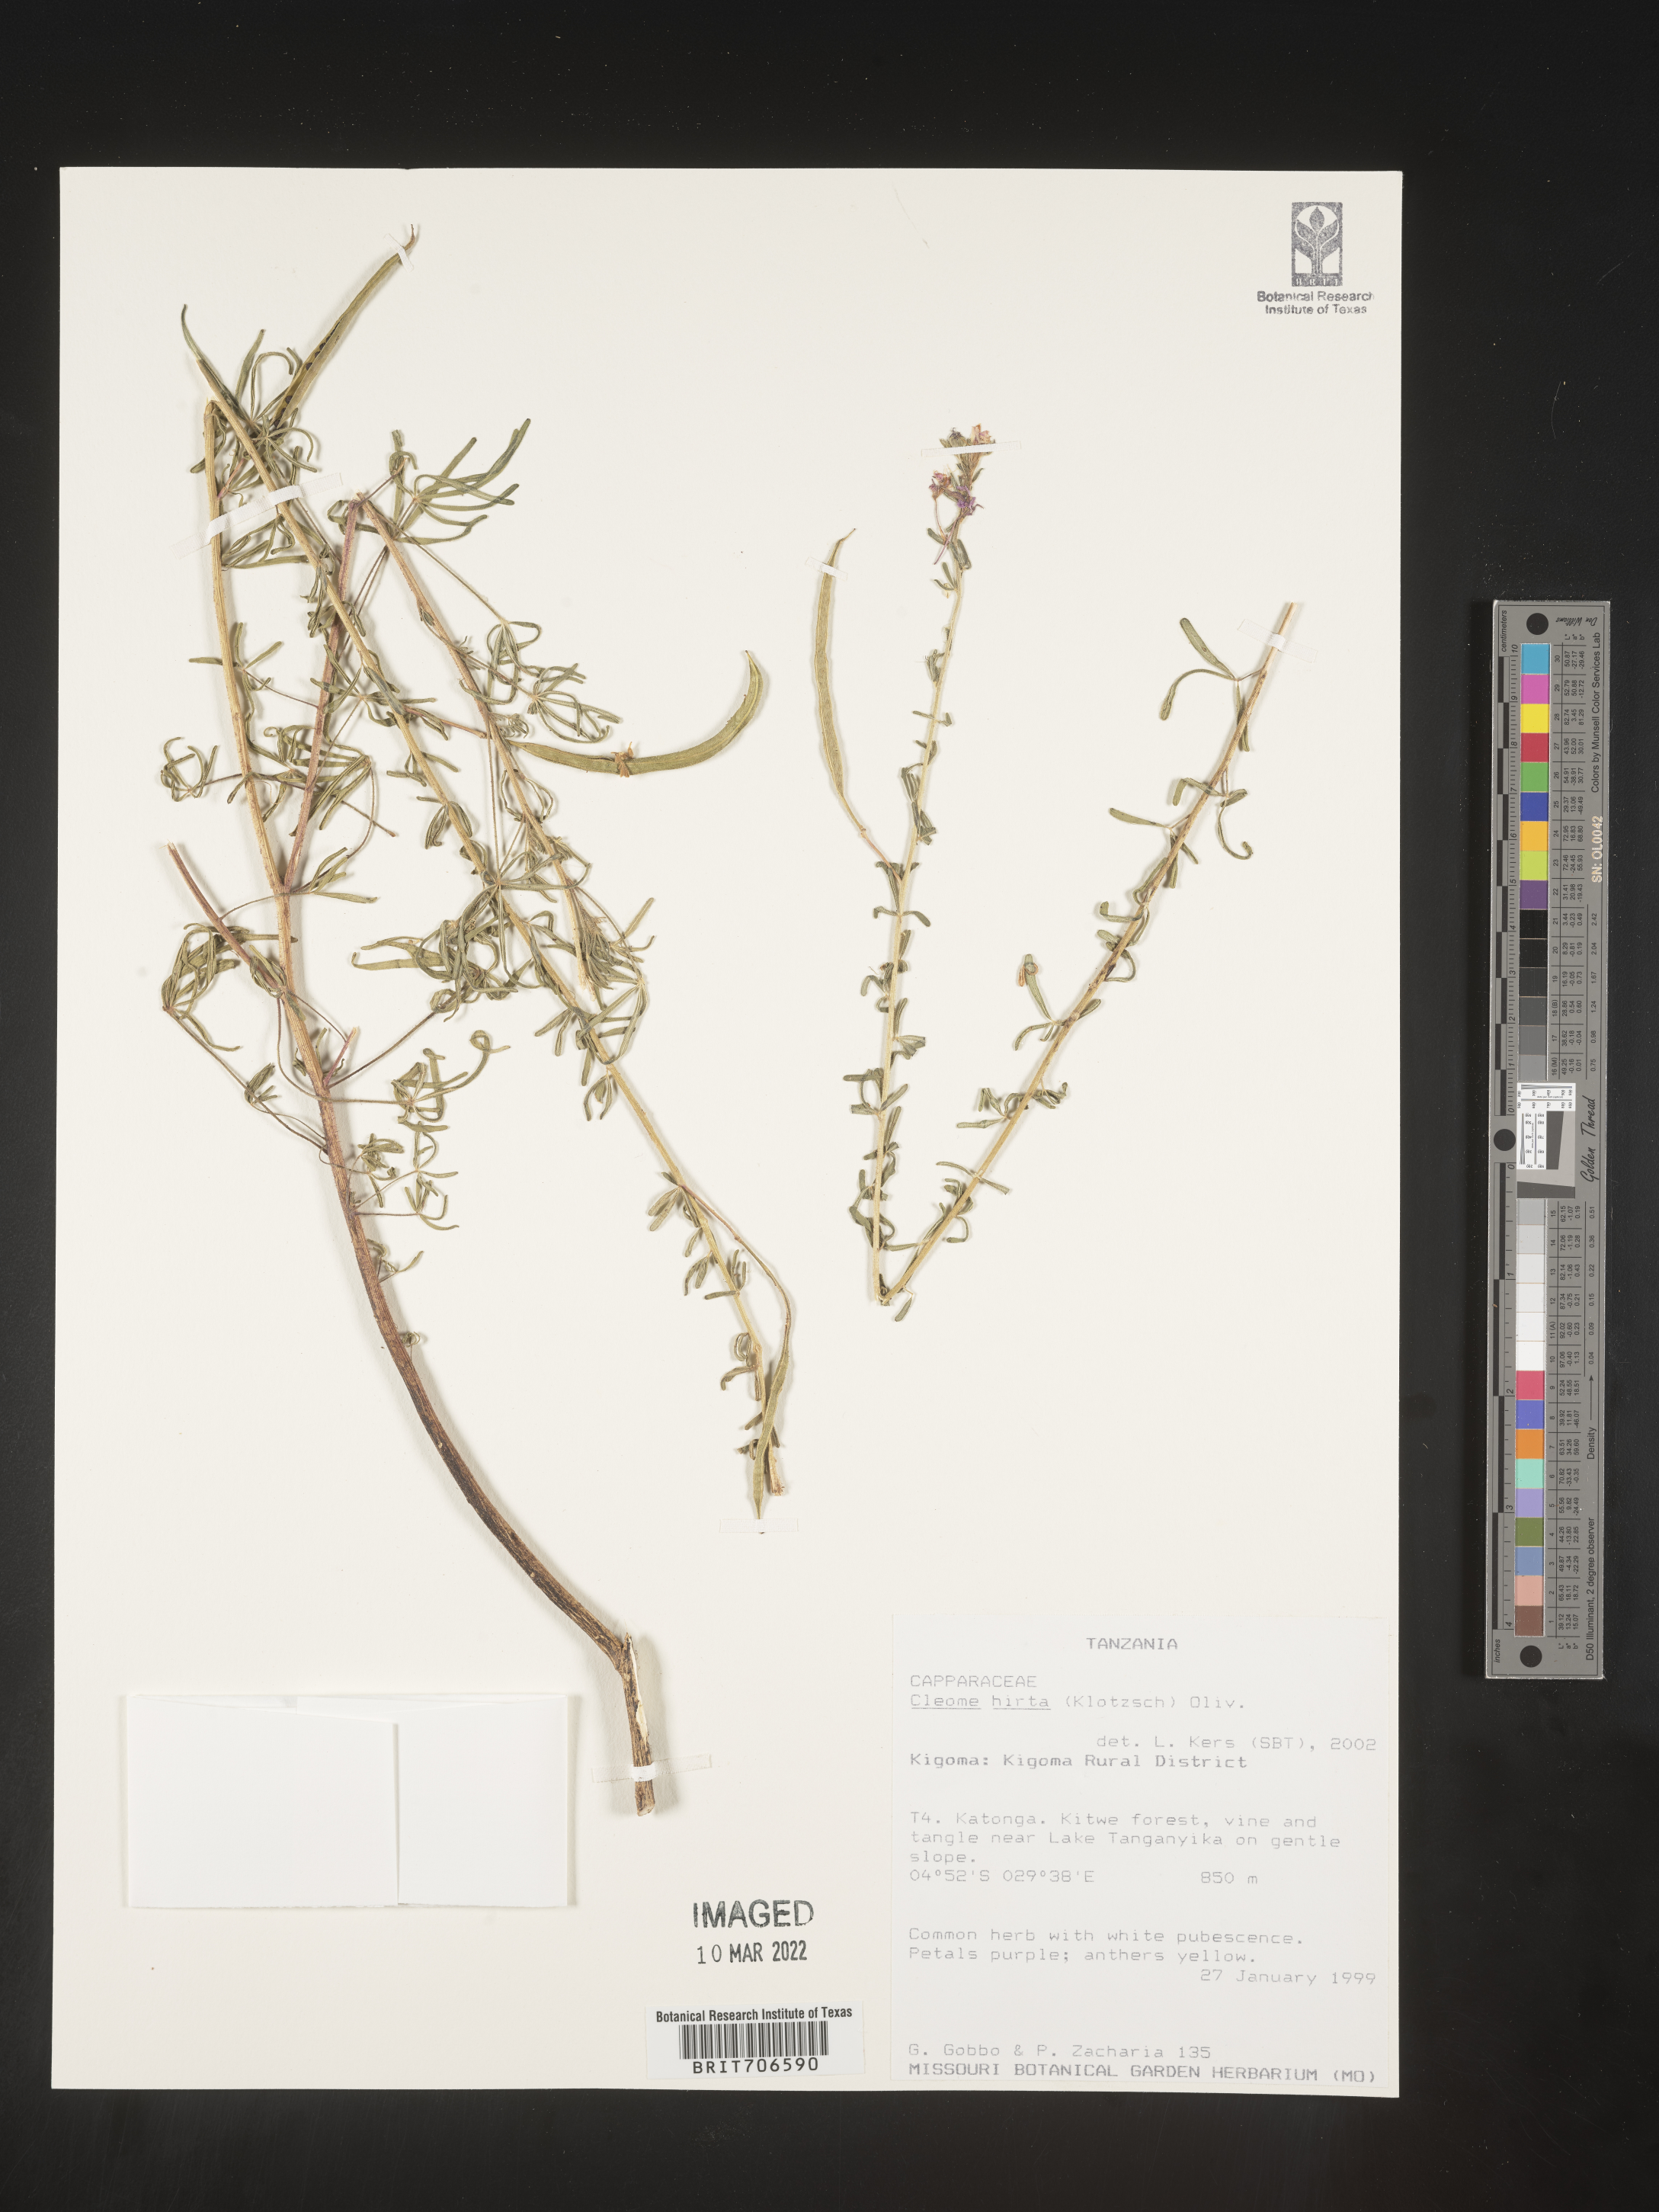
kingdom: Plantae
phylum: Tracheophyta
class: Magnoliopsida
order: Brassicales
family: Cleomaceae
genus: Cleome
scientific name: Cleome
